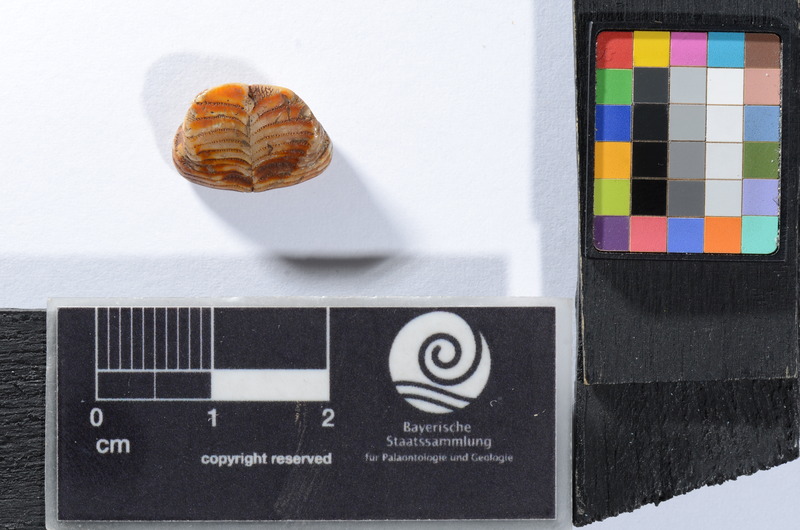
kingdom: Animalia
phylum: Chordata
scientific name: Chordata
